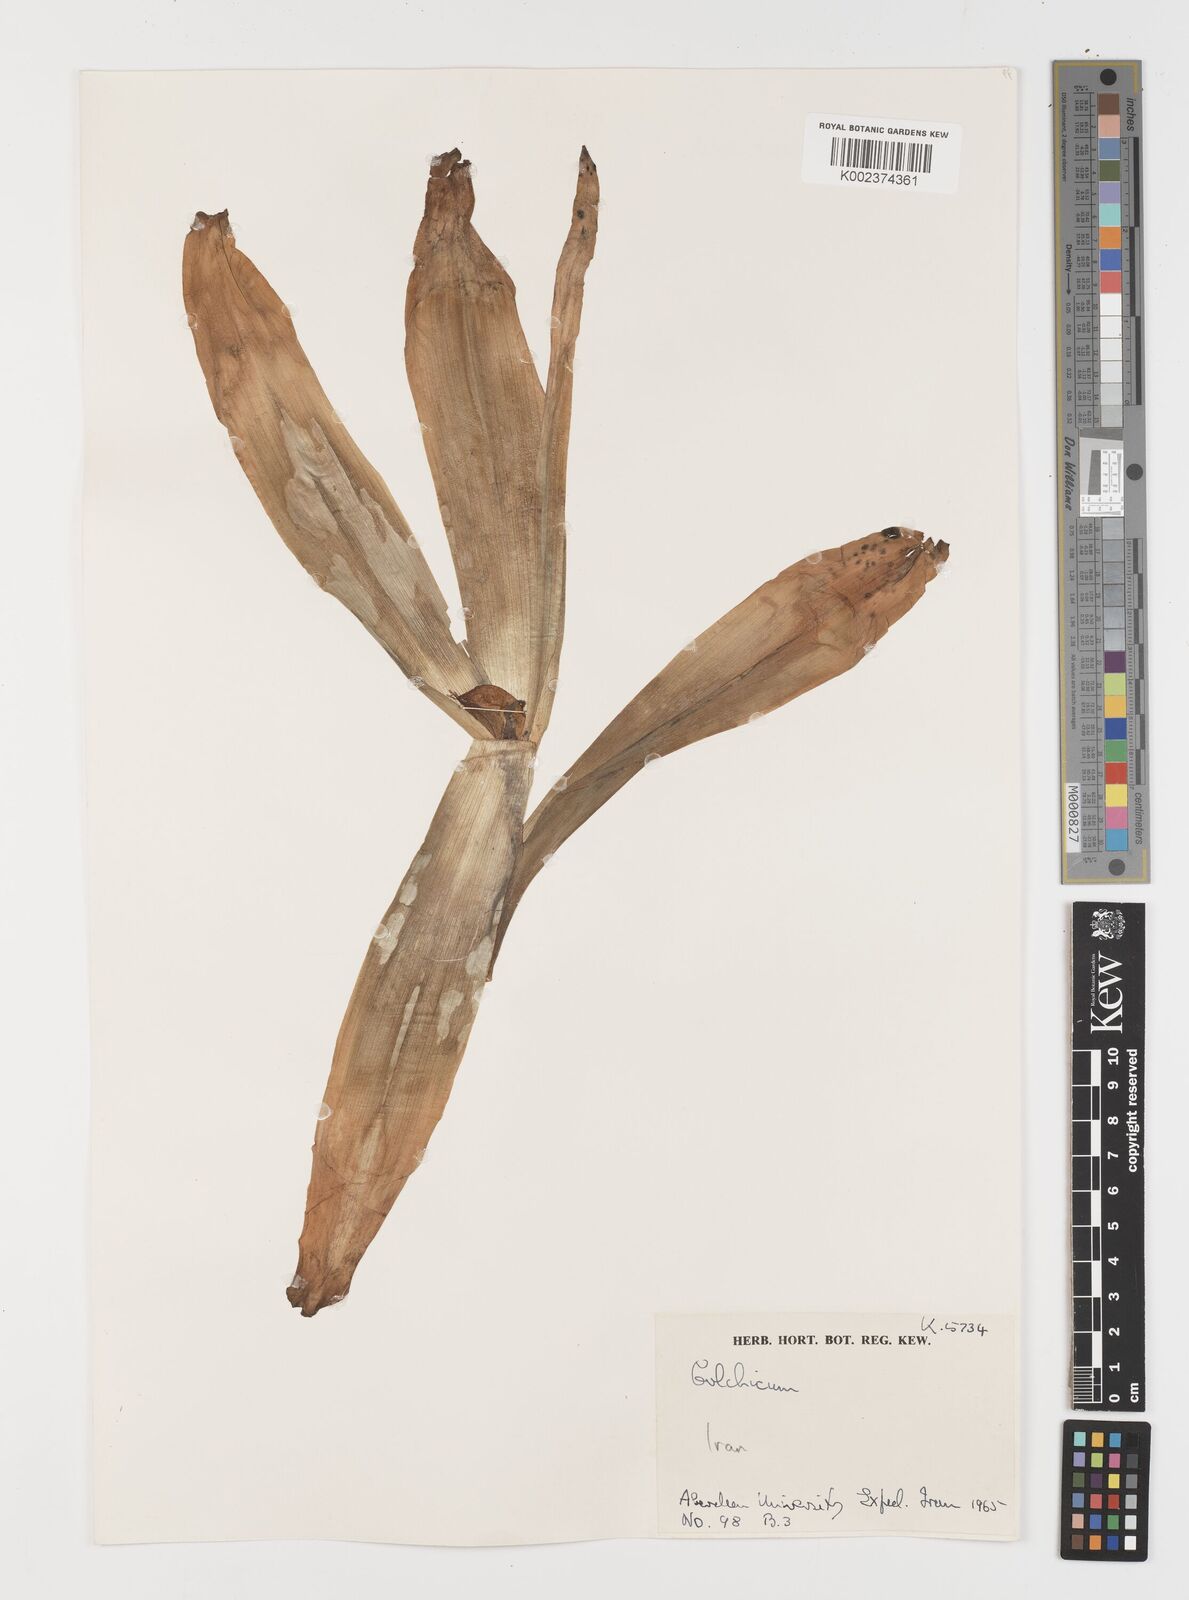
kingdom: Plantae
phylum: Tracheophyta
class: Liliopsida
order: Liliales
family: Colchicaceae
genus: Colchicum
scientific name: Colchicum
